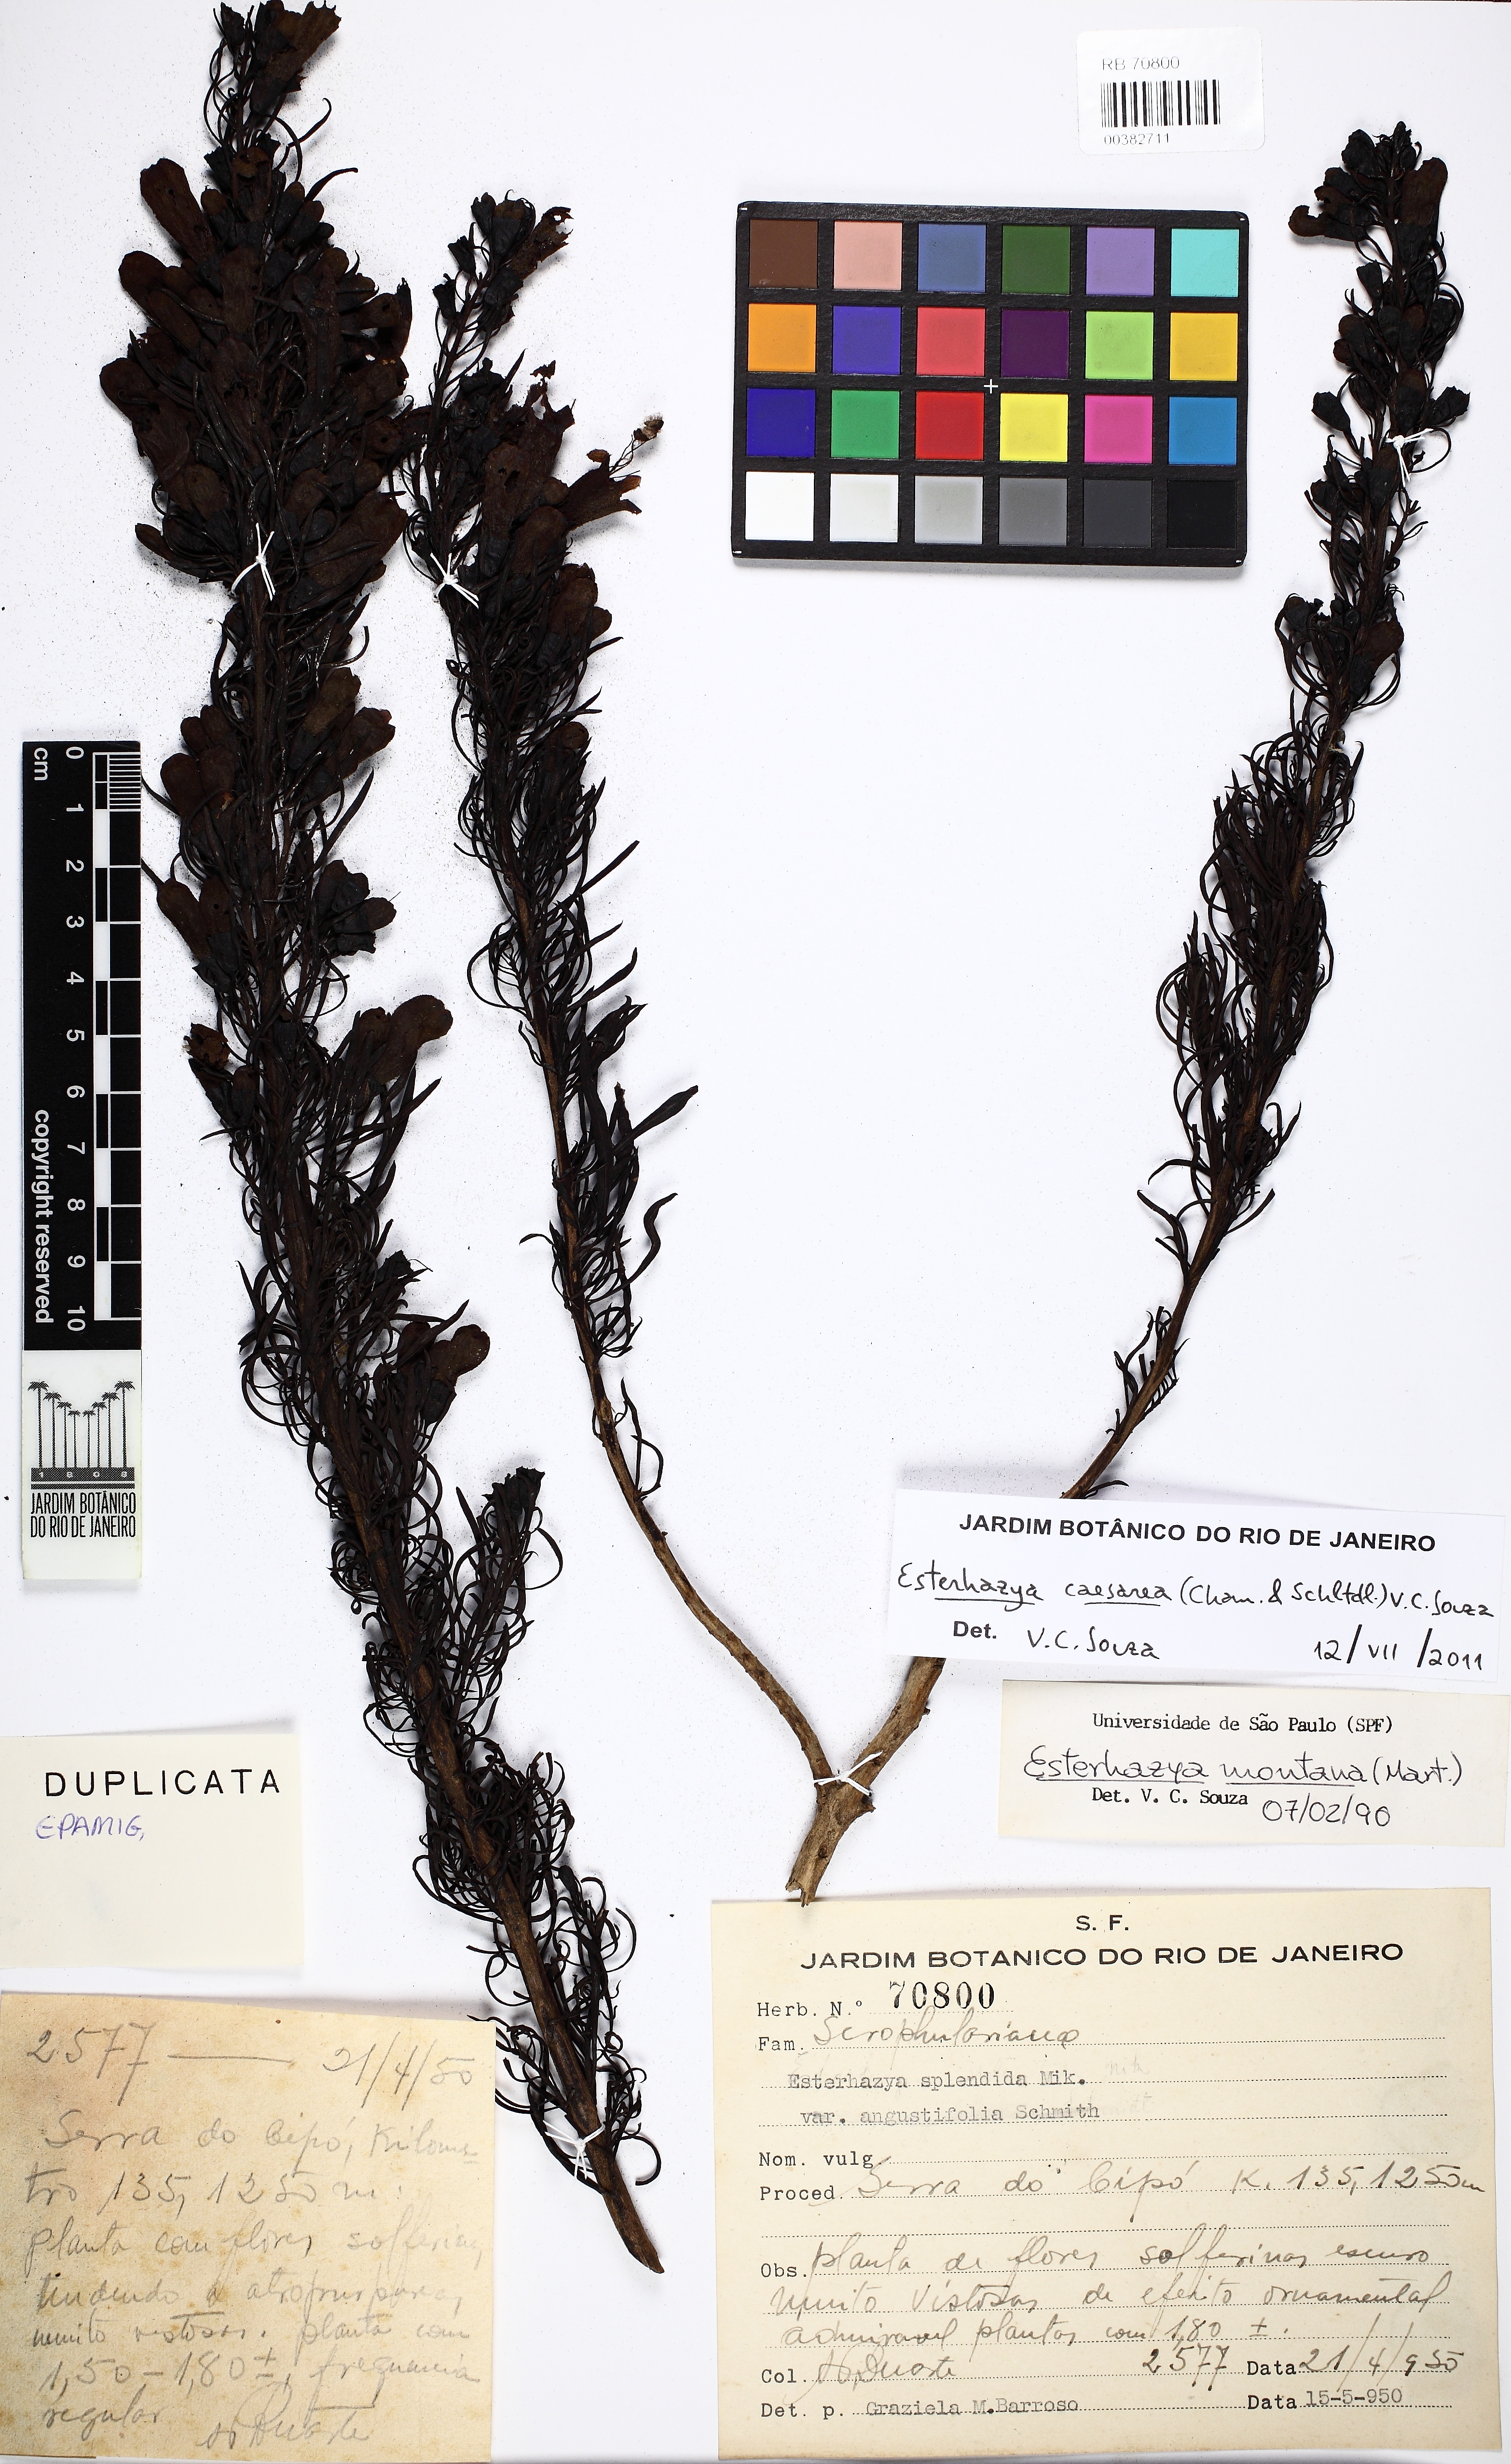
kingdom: Plantae
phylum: Tracheophyta
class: Magnoliopsida
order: Lamiales
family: Orobanchaceae
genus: Esterhazya
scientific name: Esterhazya caesarea
